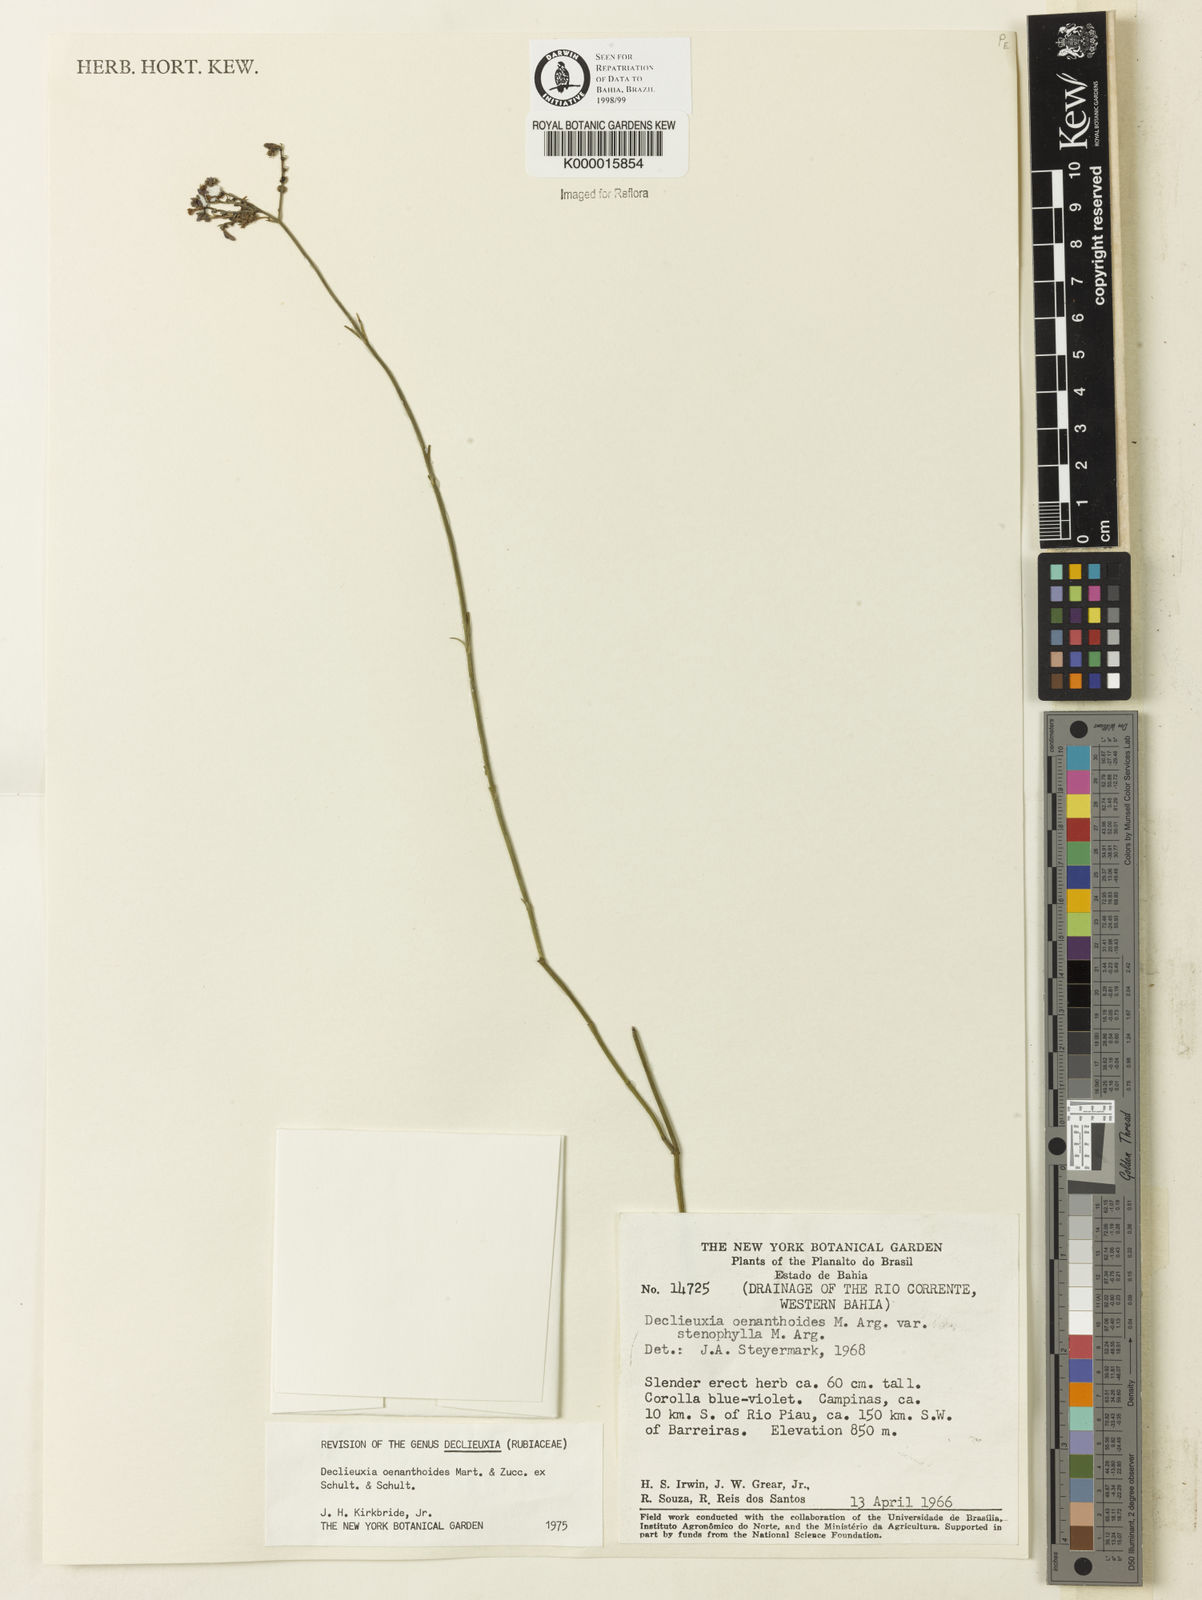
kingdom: Plantae
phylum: Tracheophyta
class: Magnoliopsida
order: Gentianales
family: Rubiaceae
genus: Declieuxia
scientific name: Declieuxia
